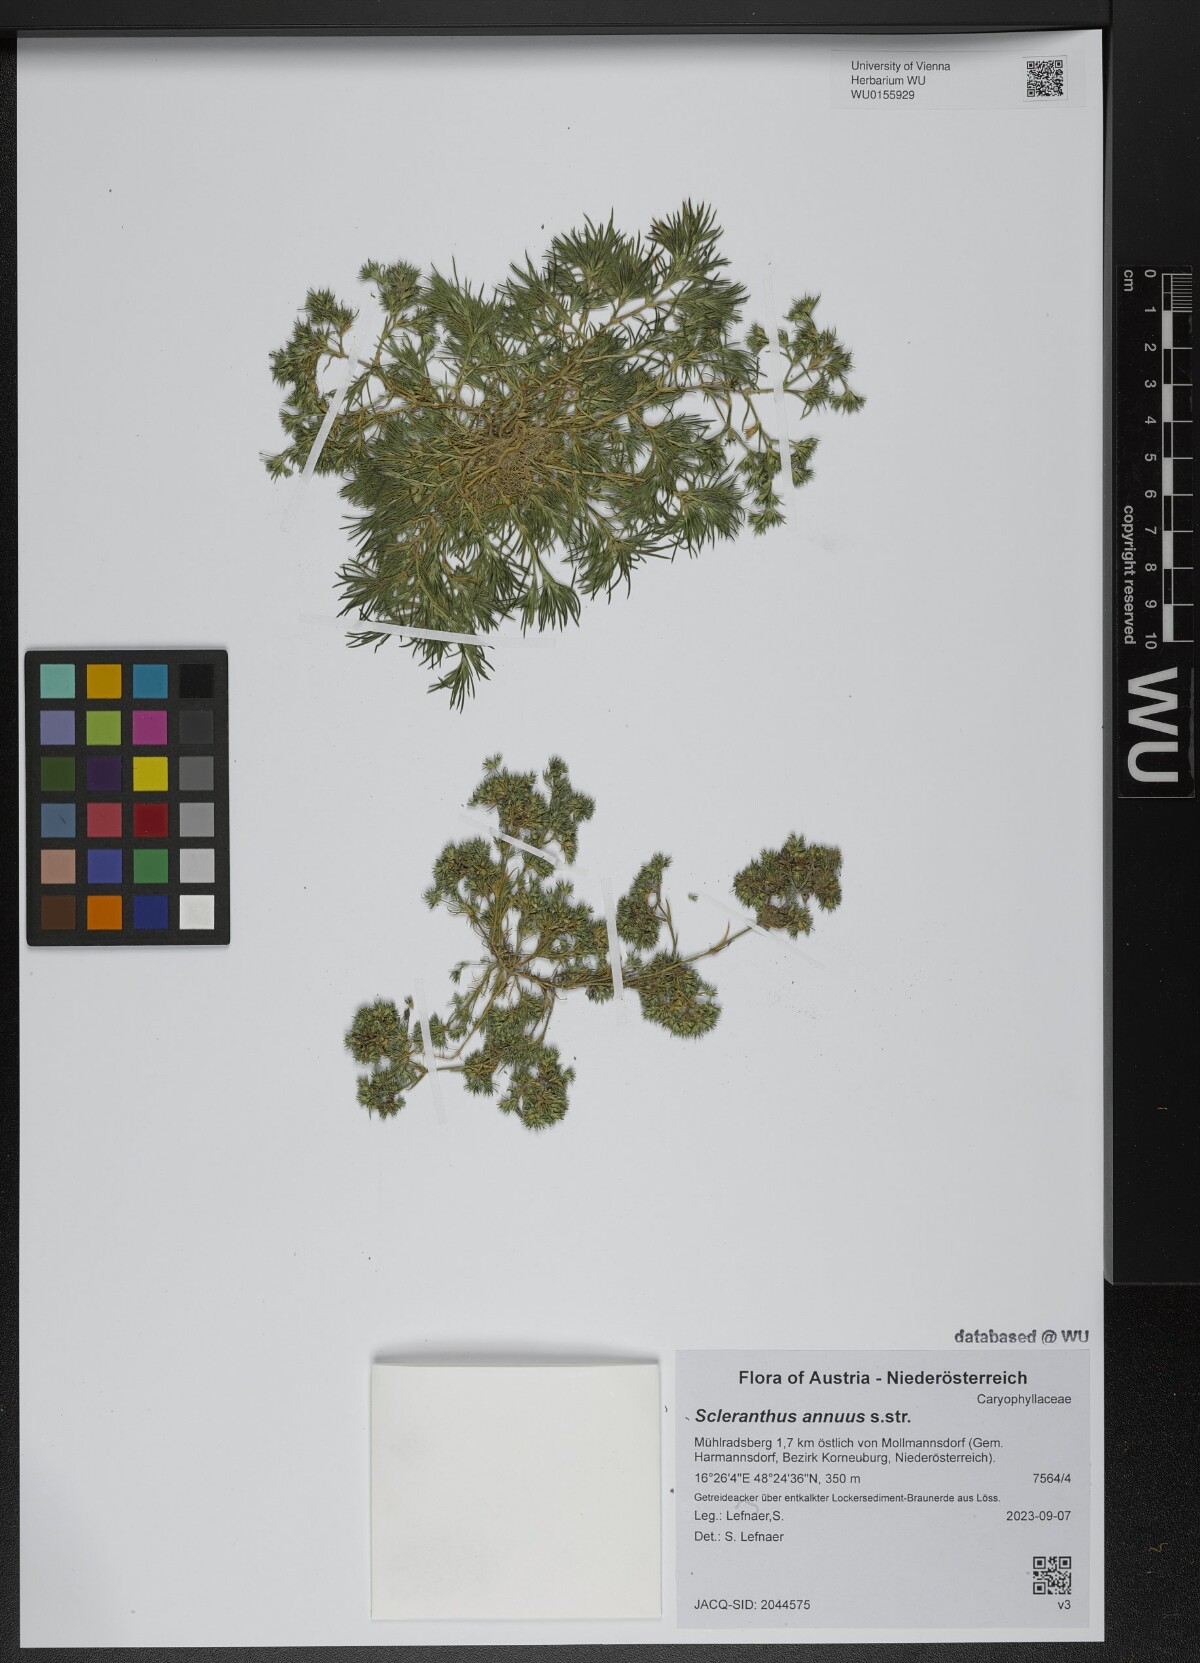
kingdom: Plantae
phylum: Tracheophyta
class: Magnoliopsida
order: Caryophyllales
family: Caryophyllaceae
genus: Scleranthus
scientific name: Scleranthus annuus
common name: Annual knawel
